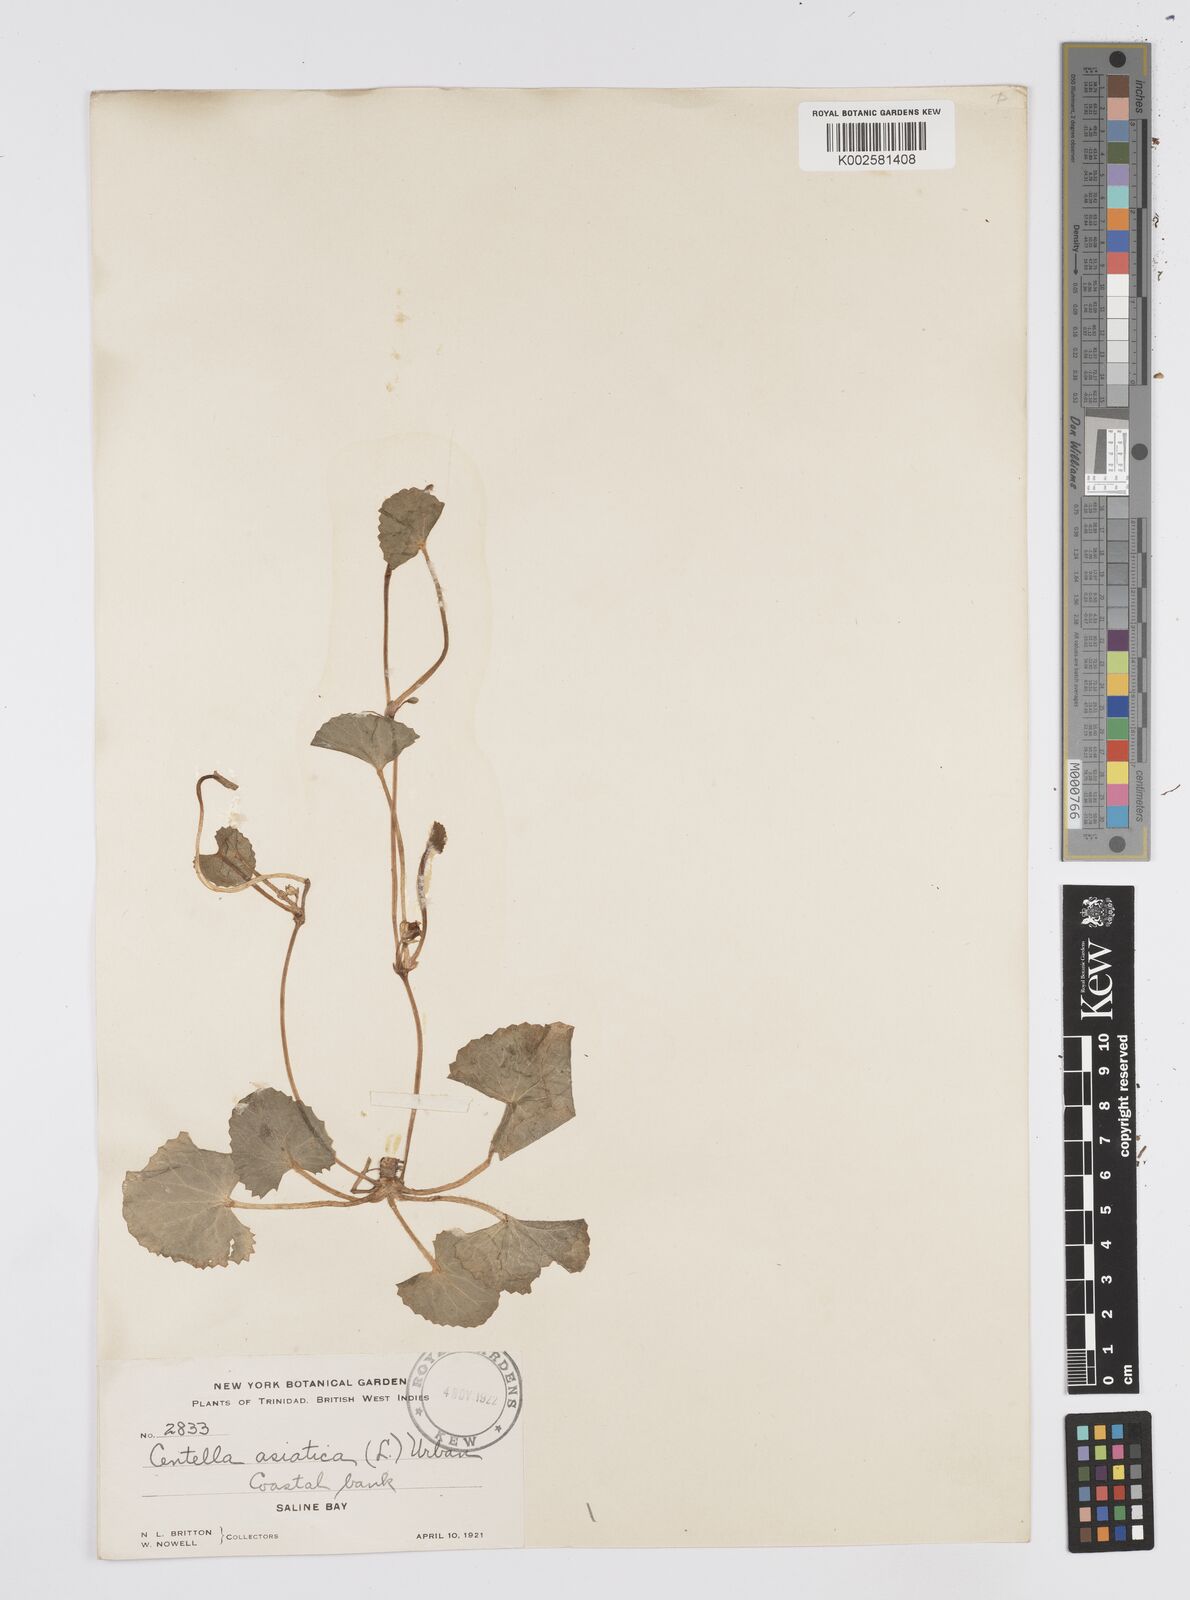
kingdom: Plantae
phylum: Tracheophyta
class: Magnoliopsida
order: Apiales
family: Apiaceae
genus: Centella
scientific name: Centella asiatica
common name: Spadeleaf
